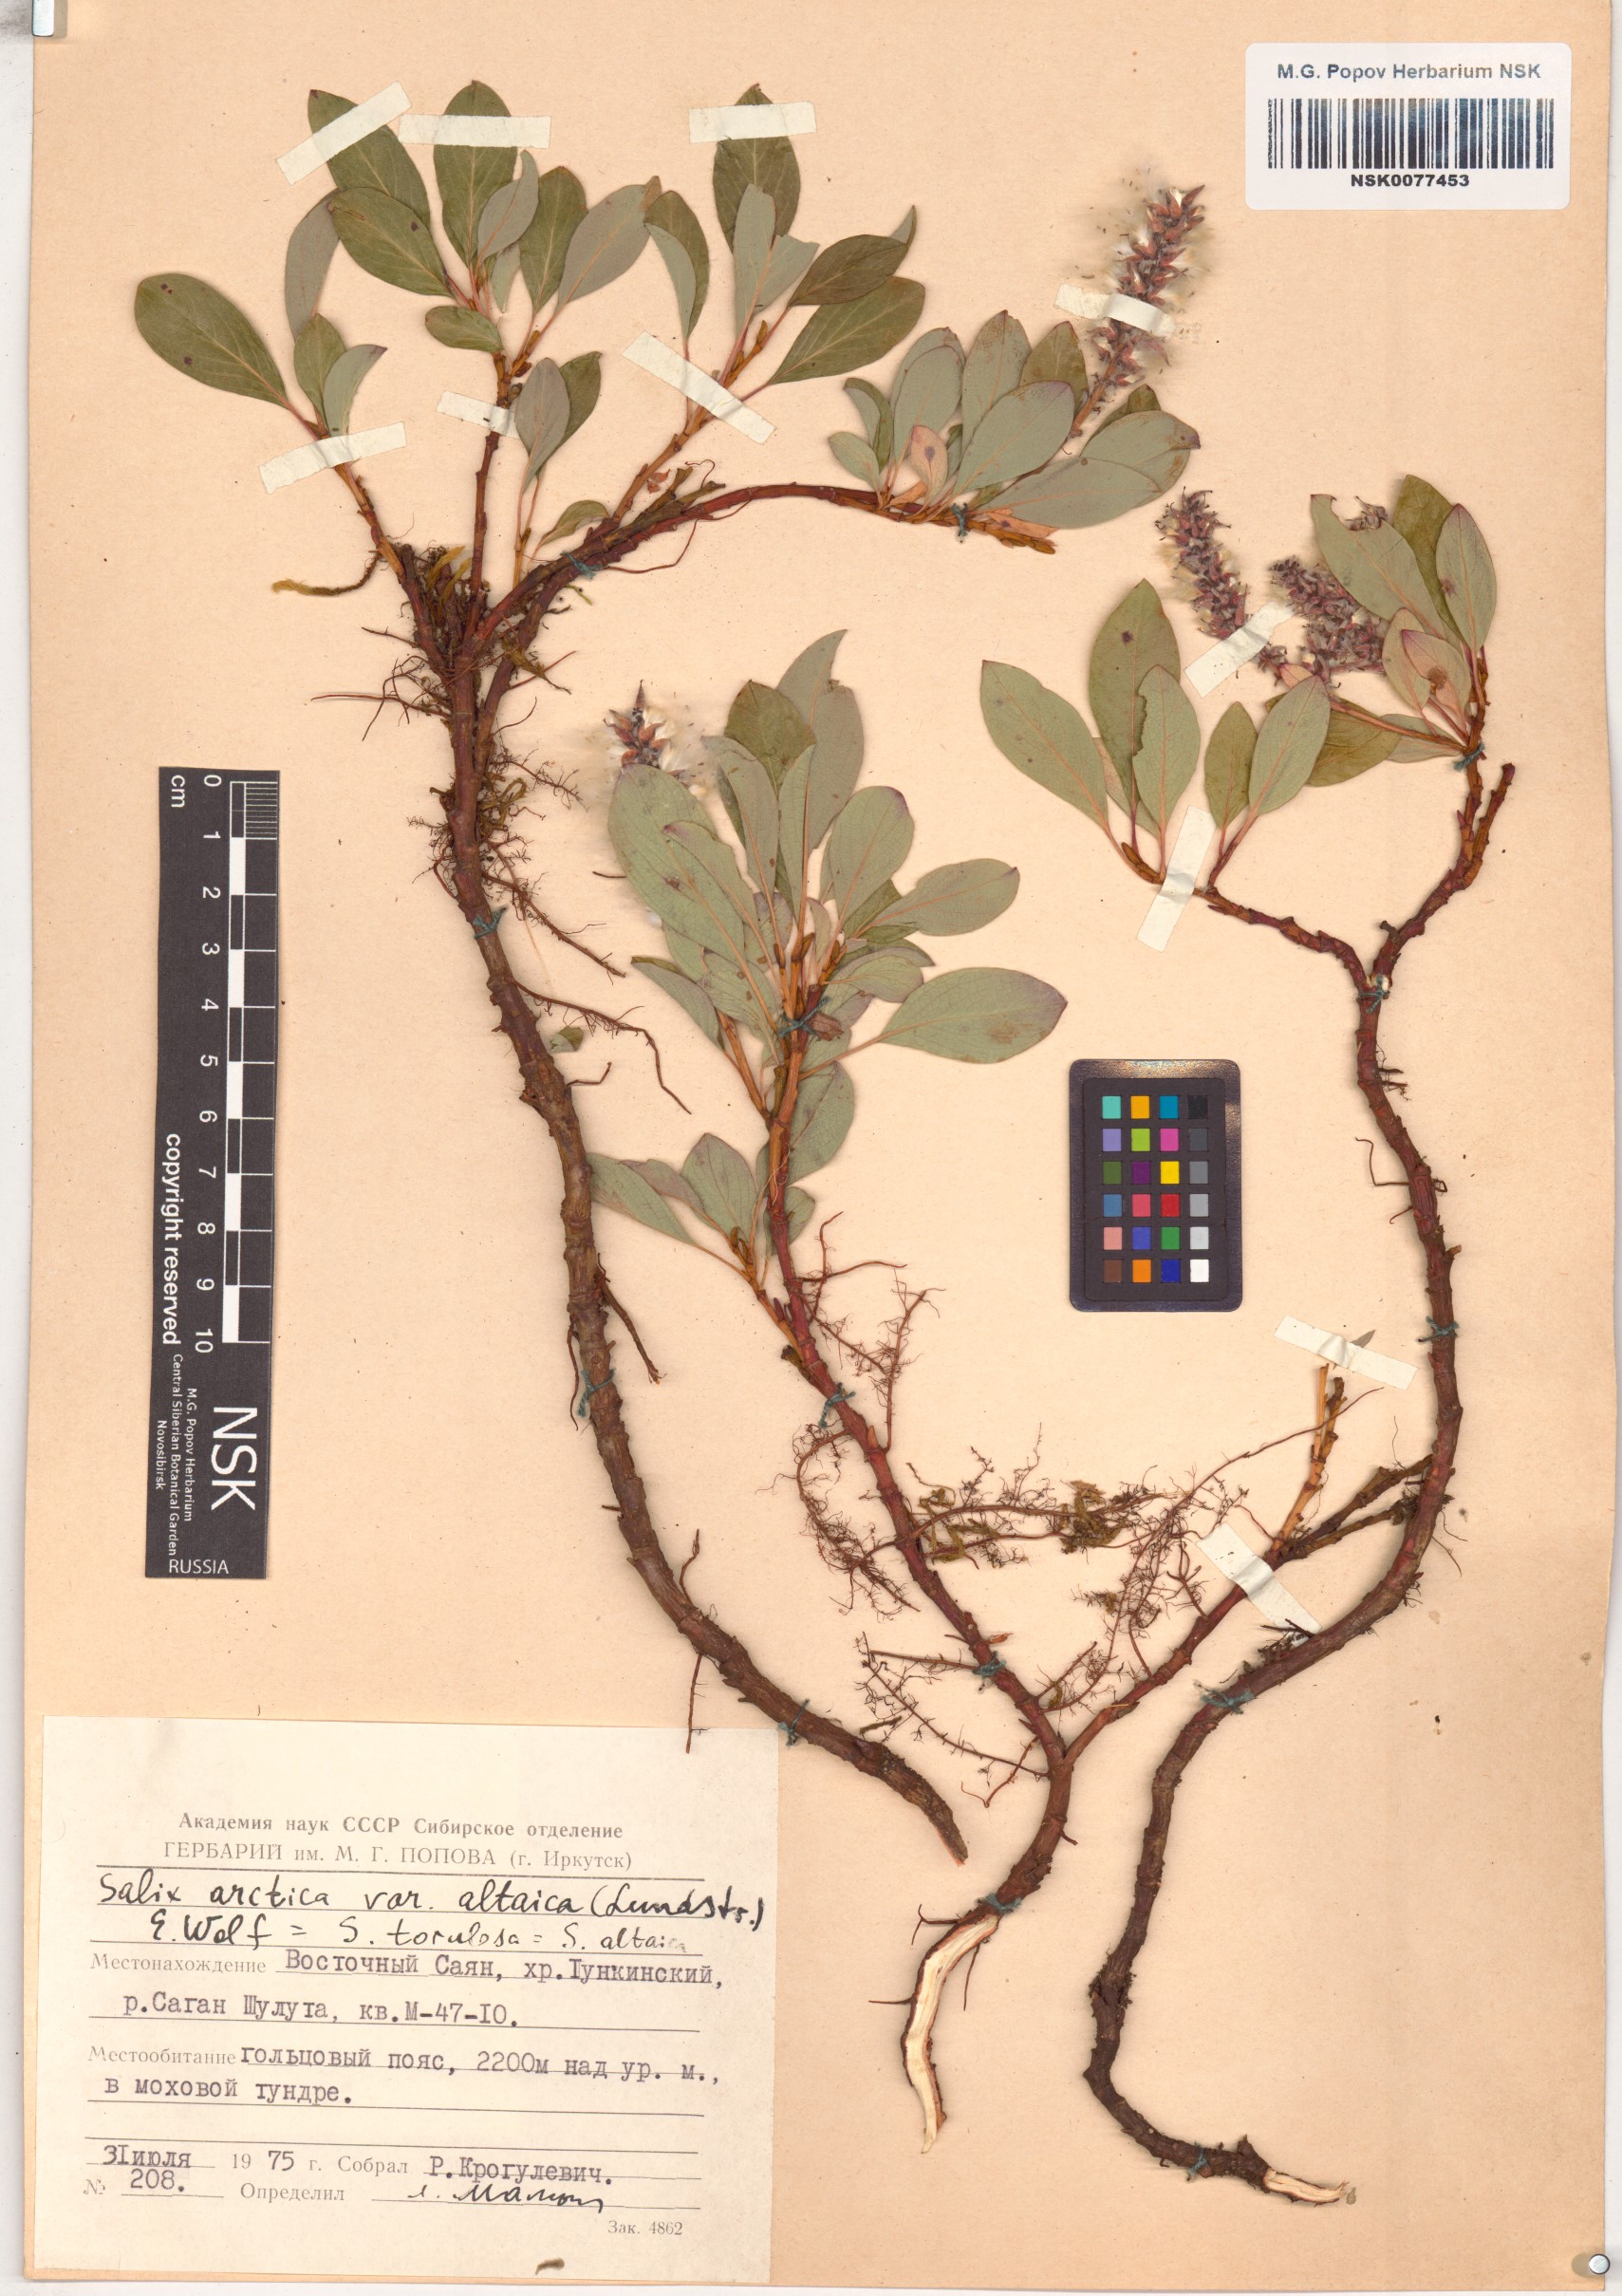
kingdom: Plantae
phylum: Tracheophyta
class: Magnoliopsida
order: Malpighiales
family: Salicaceae
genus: Salix
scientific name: Salix arctica
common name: Arctic willow
